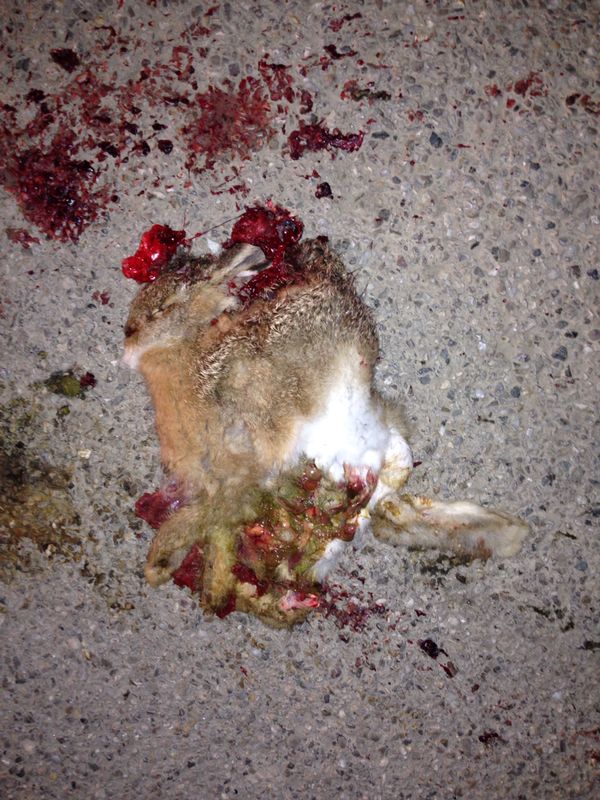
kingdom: Animalia
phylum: Chordata
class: Mammalia
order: Lagomorpha
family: Leporidae
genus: Lepus
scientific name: Lepus europaeus
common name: European hare
